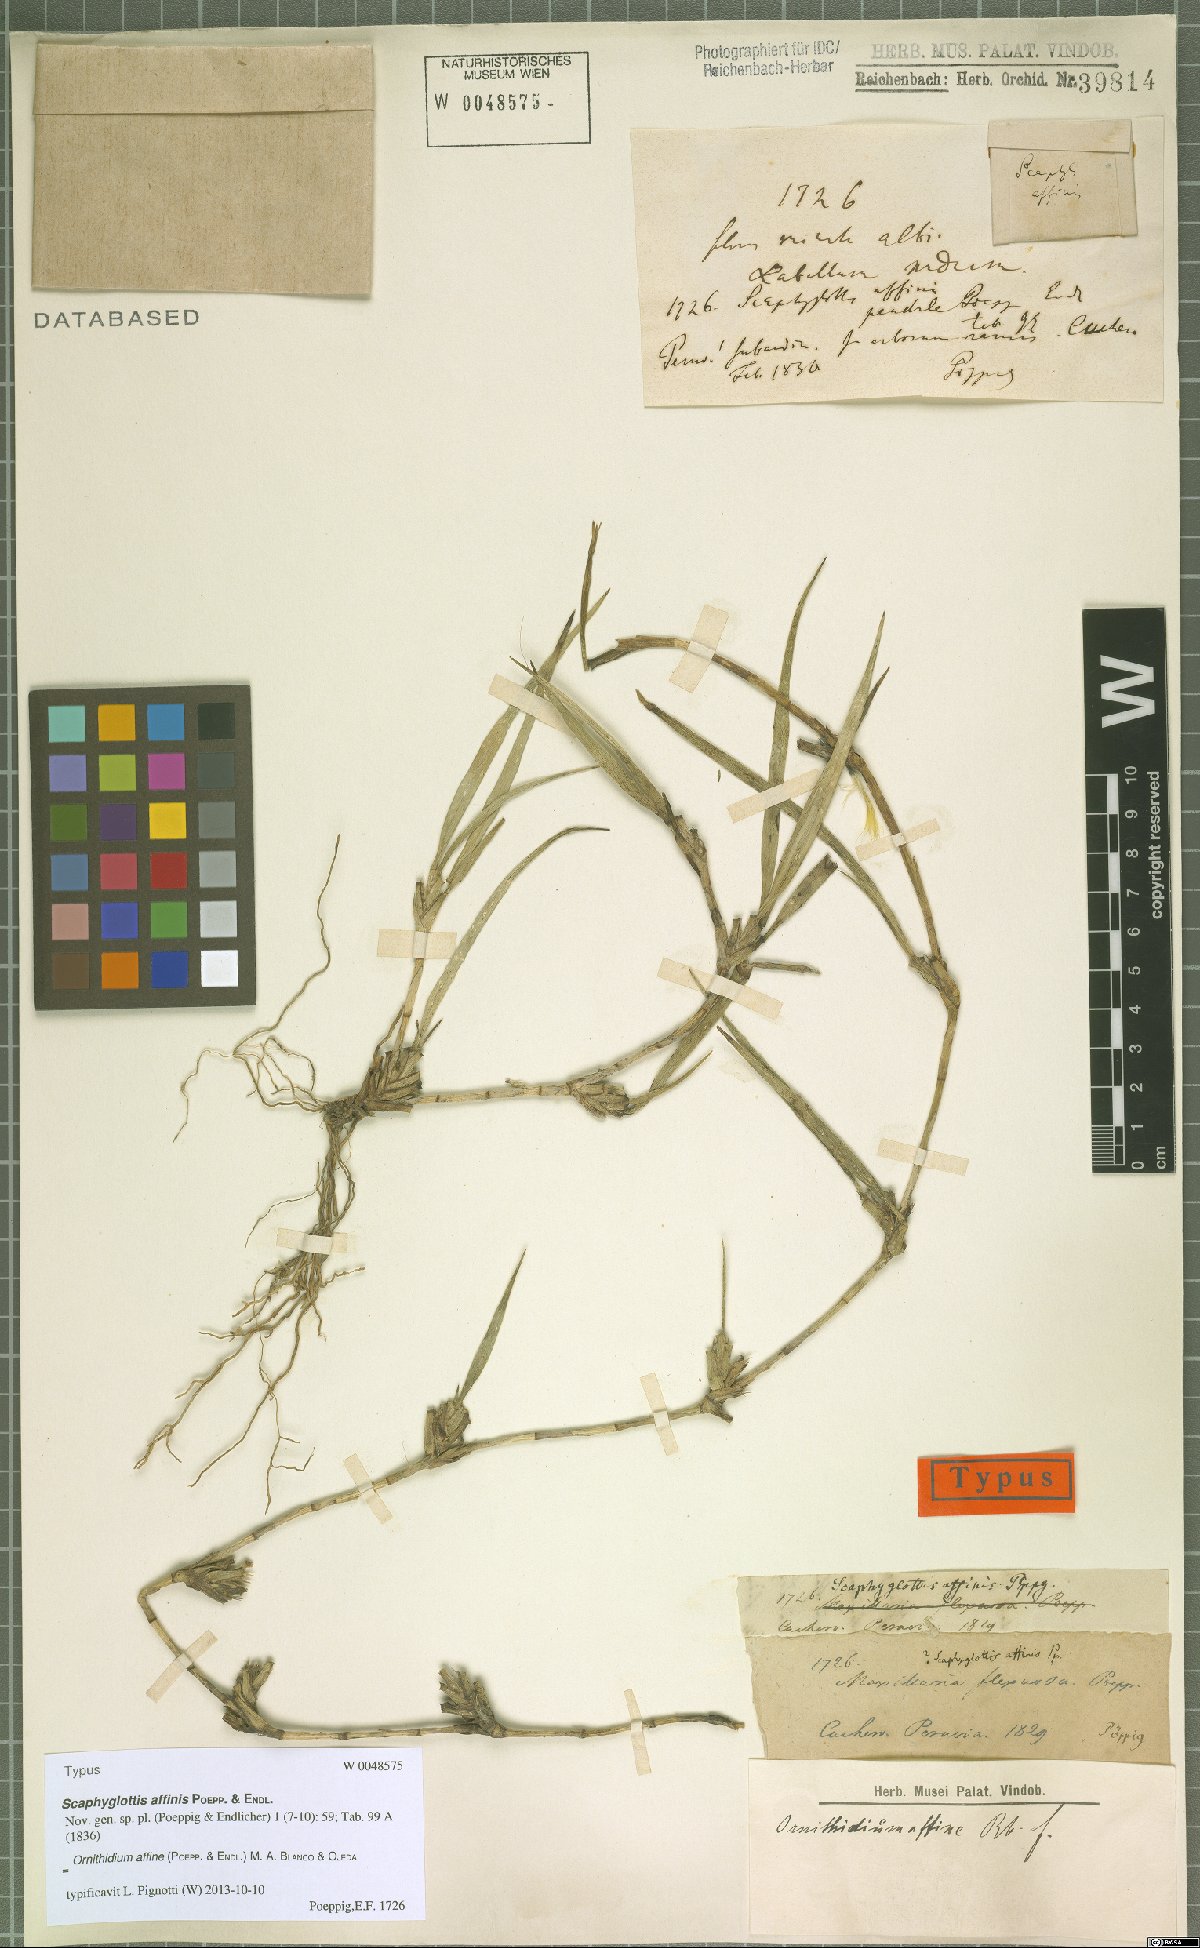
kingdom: Plantae
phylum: Tracheophyta
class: Liliopsida
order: Asparagales
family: Orchidaceae
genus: Maxillaria
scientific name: Maxillaria affinis
